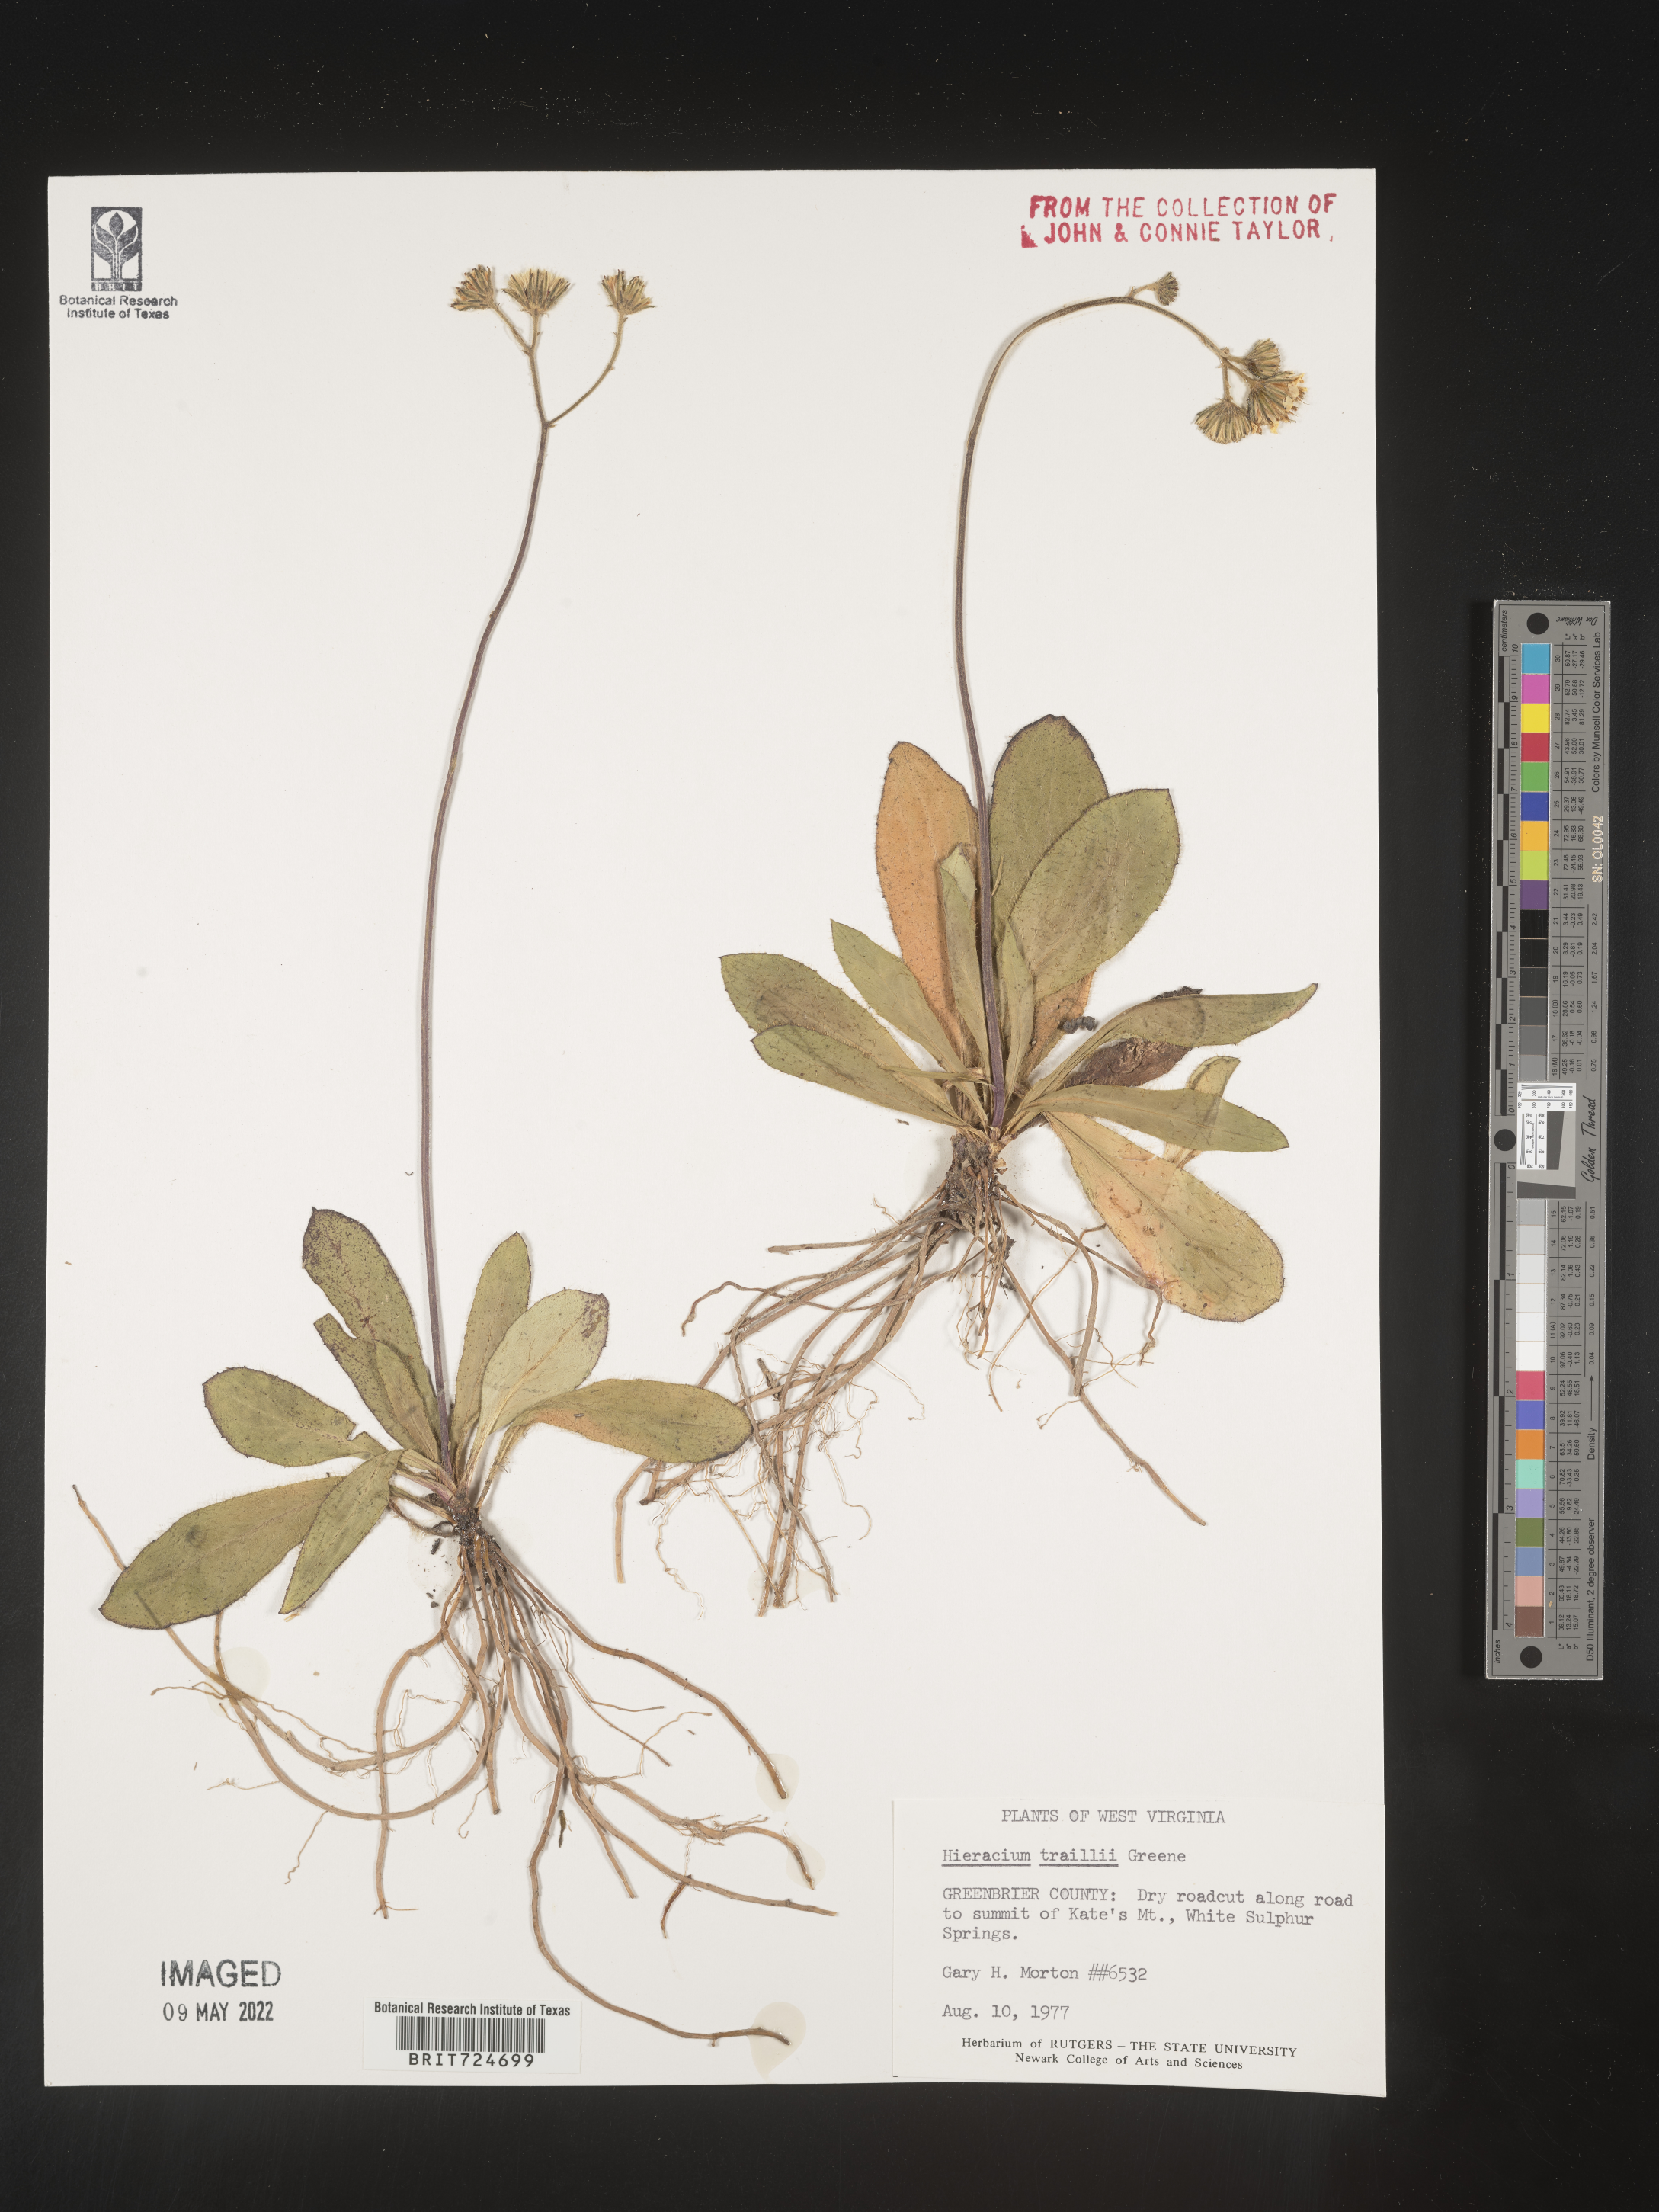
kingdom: Plantae
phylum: Tracheophyta
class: Magnoliopsida
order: Asterales
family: Asteraceae
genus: Hieracium
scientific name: Hieracium
